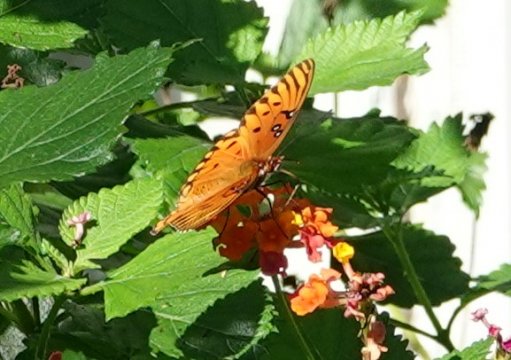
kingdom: Animalia
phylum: Arthropoda
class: Insecta
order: Lepidoptera
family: Nymphalidae
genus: Dione
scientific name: Dione vanillae
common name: Gulf Fritillary
